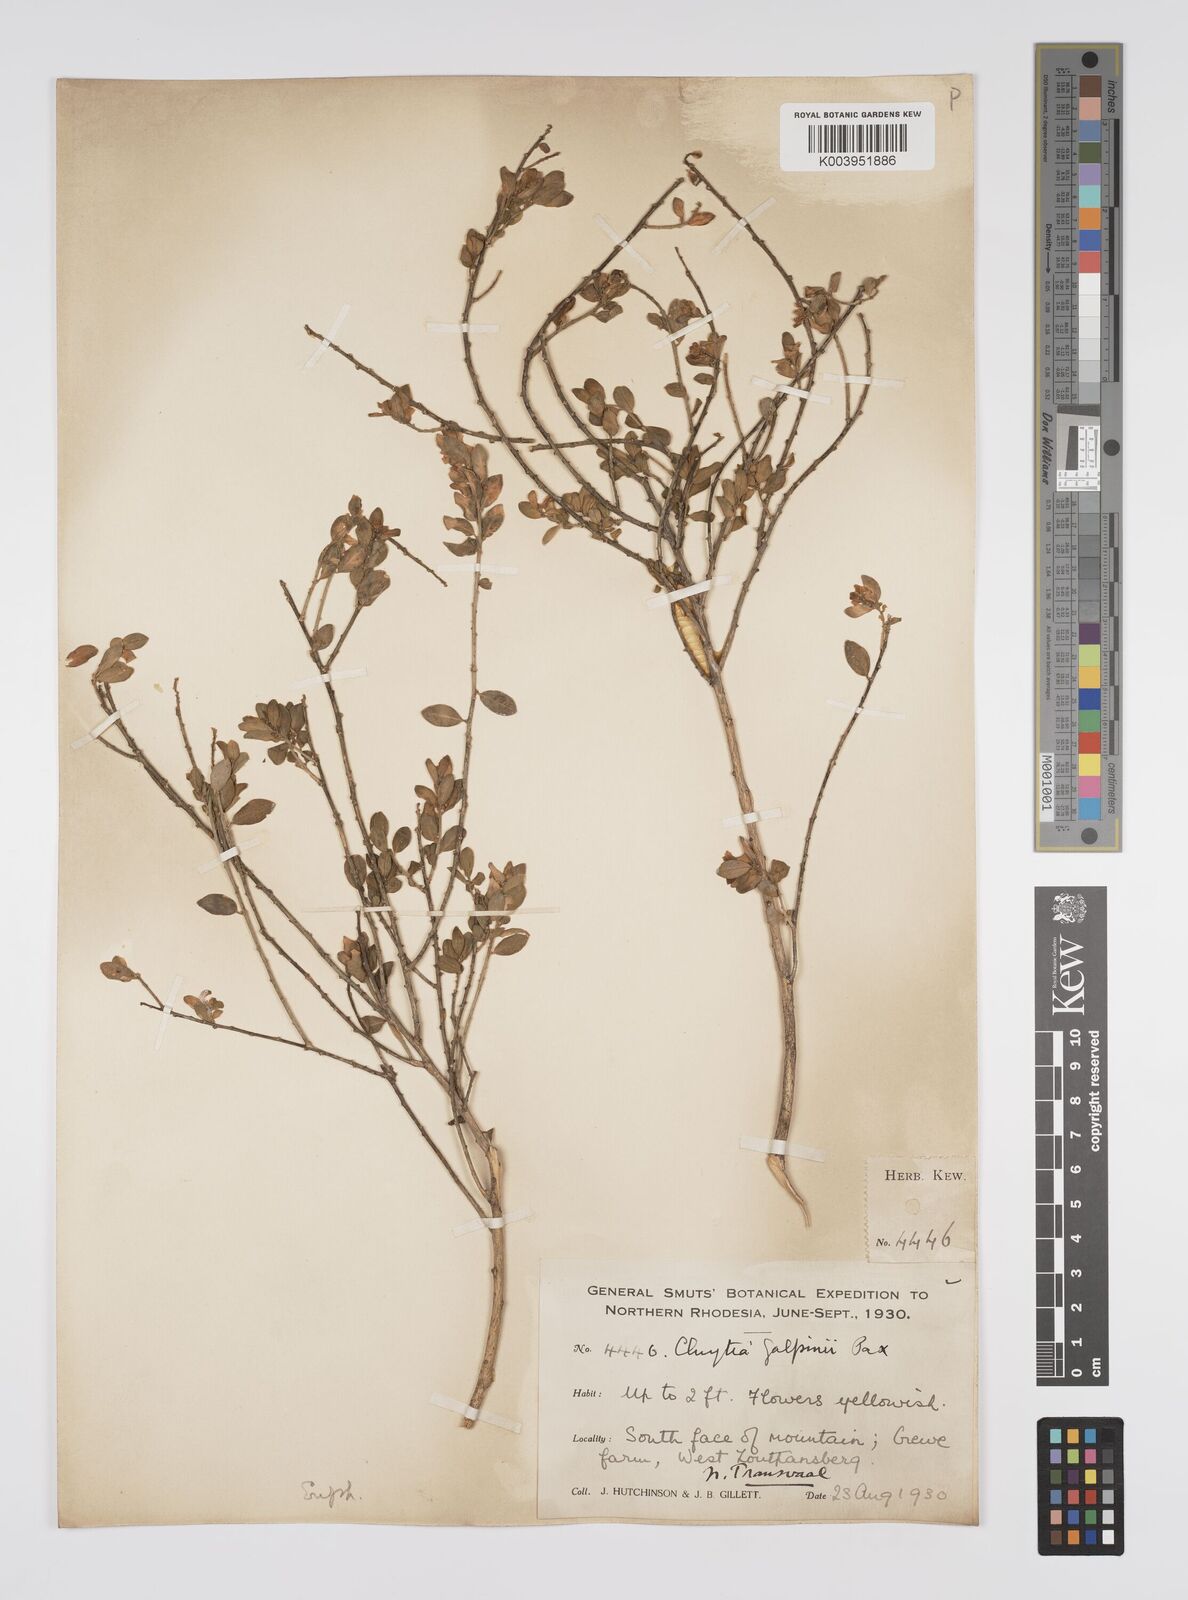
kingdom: Plantae
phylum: Tracheophyta
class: Magnoliopsida
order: Malpighiales
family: Peraceae
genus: Clutia
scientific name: Clutia galpinii
